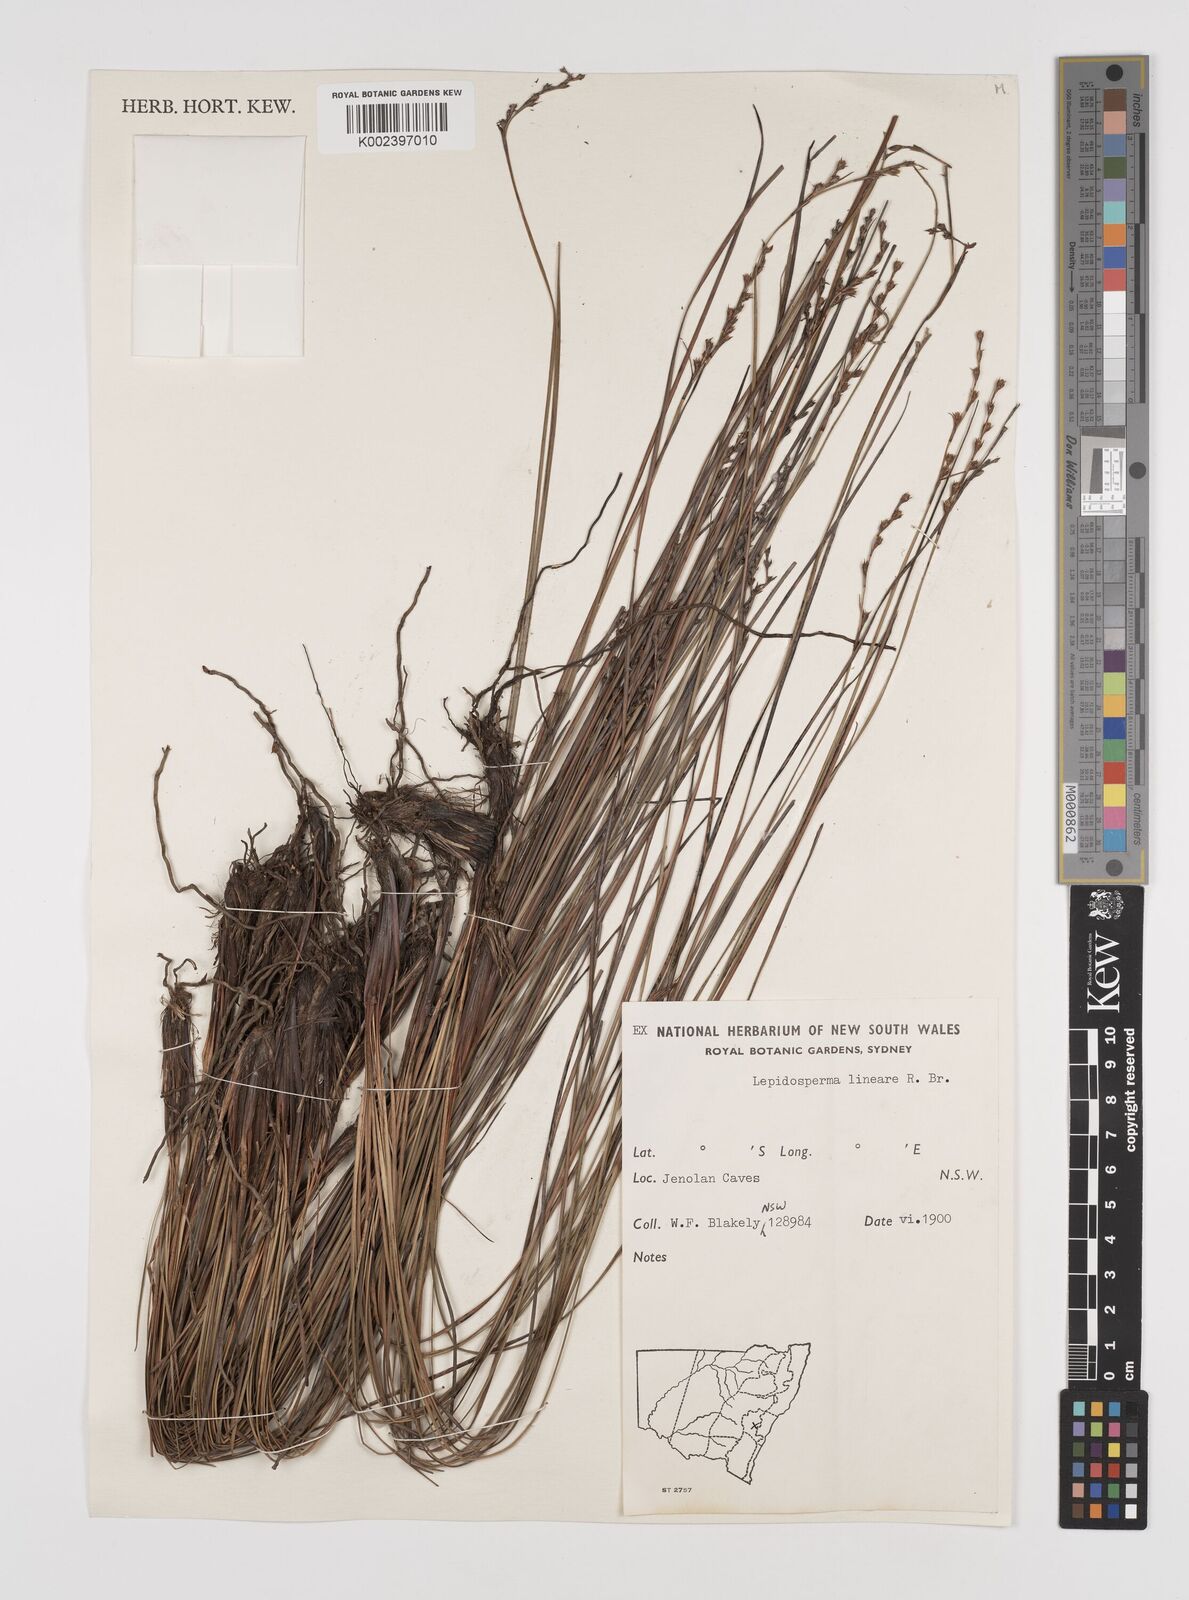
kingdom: Plantae
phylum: Tracheophyta
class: Liliopsida
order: Poales
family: Cyperaceae
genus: Lepidosperma
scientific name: Lepidosperma lineare
